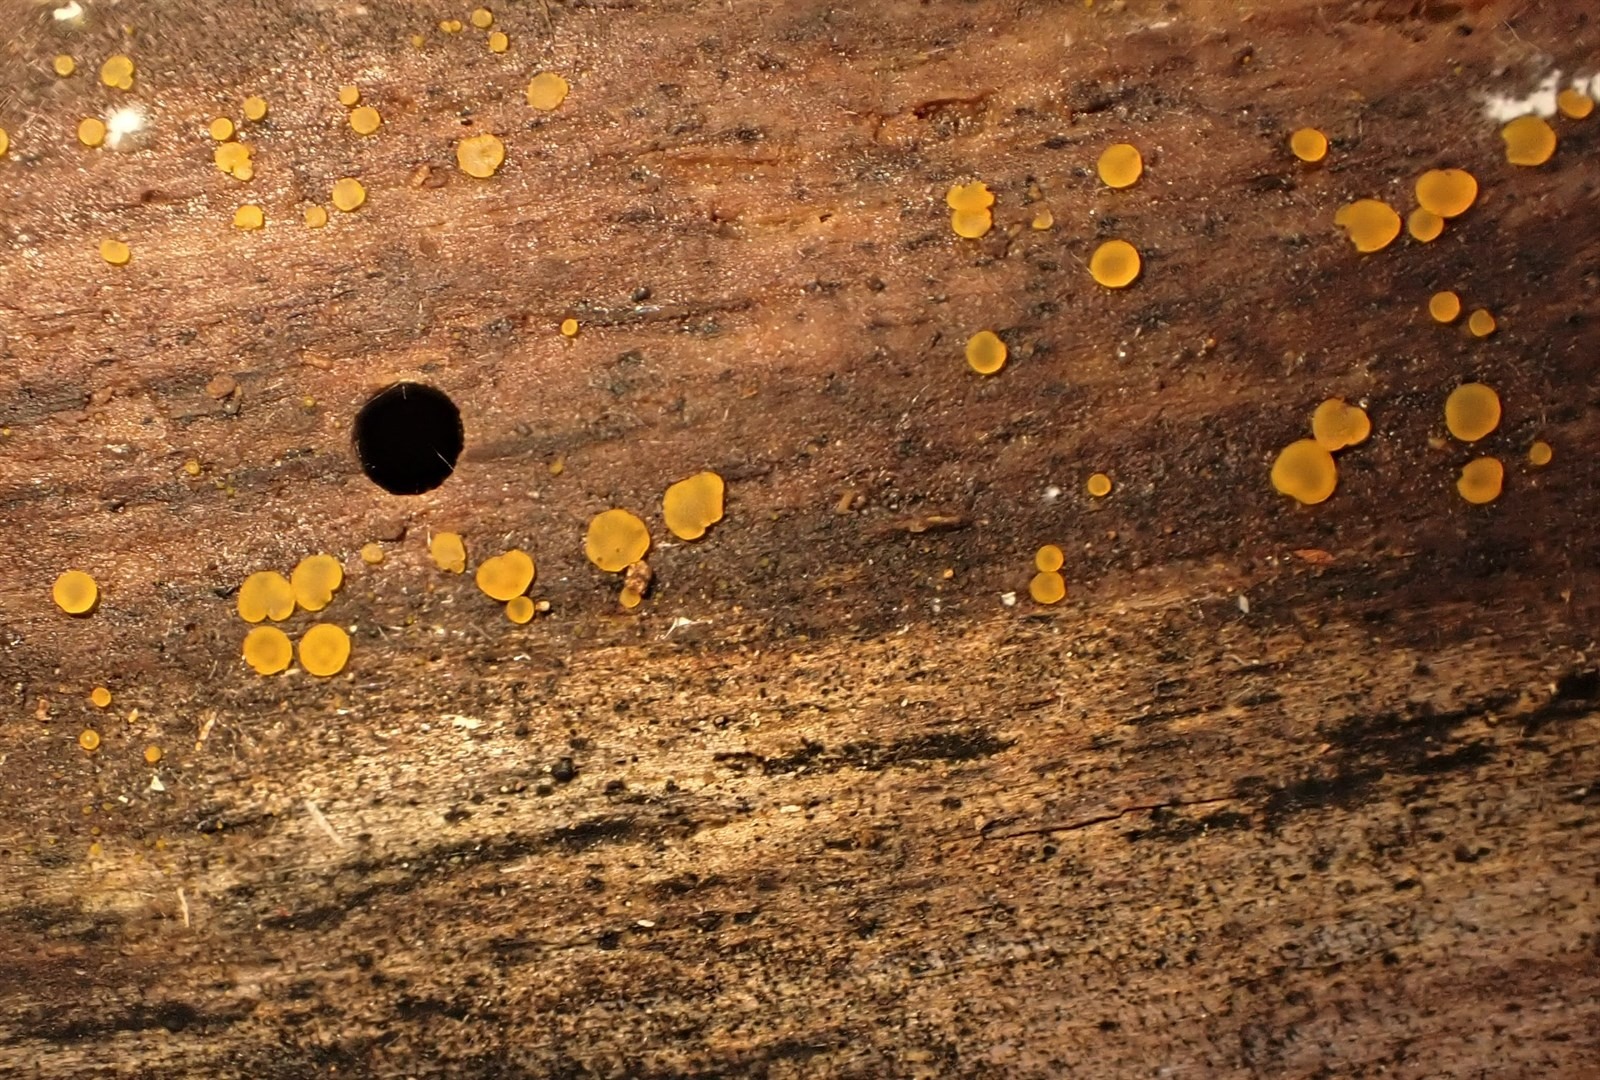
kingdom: Fungi
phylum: Ascomycota
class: Orbiliomycetes
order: Orbiliales
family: Orbiliaceae
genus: Orbilia
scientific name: Orbilia xanthostigma
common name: Common glasscup
